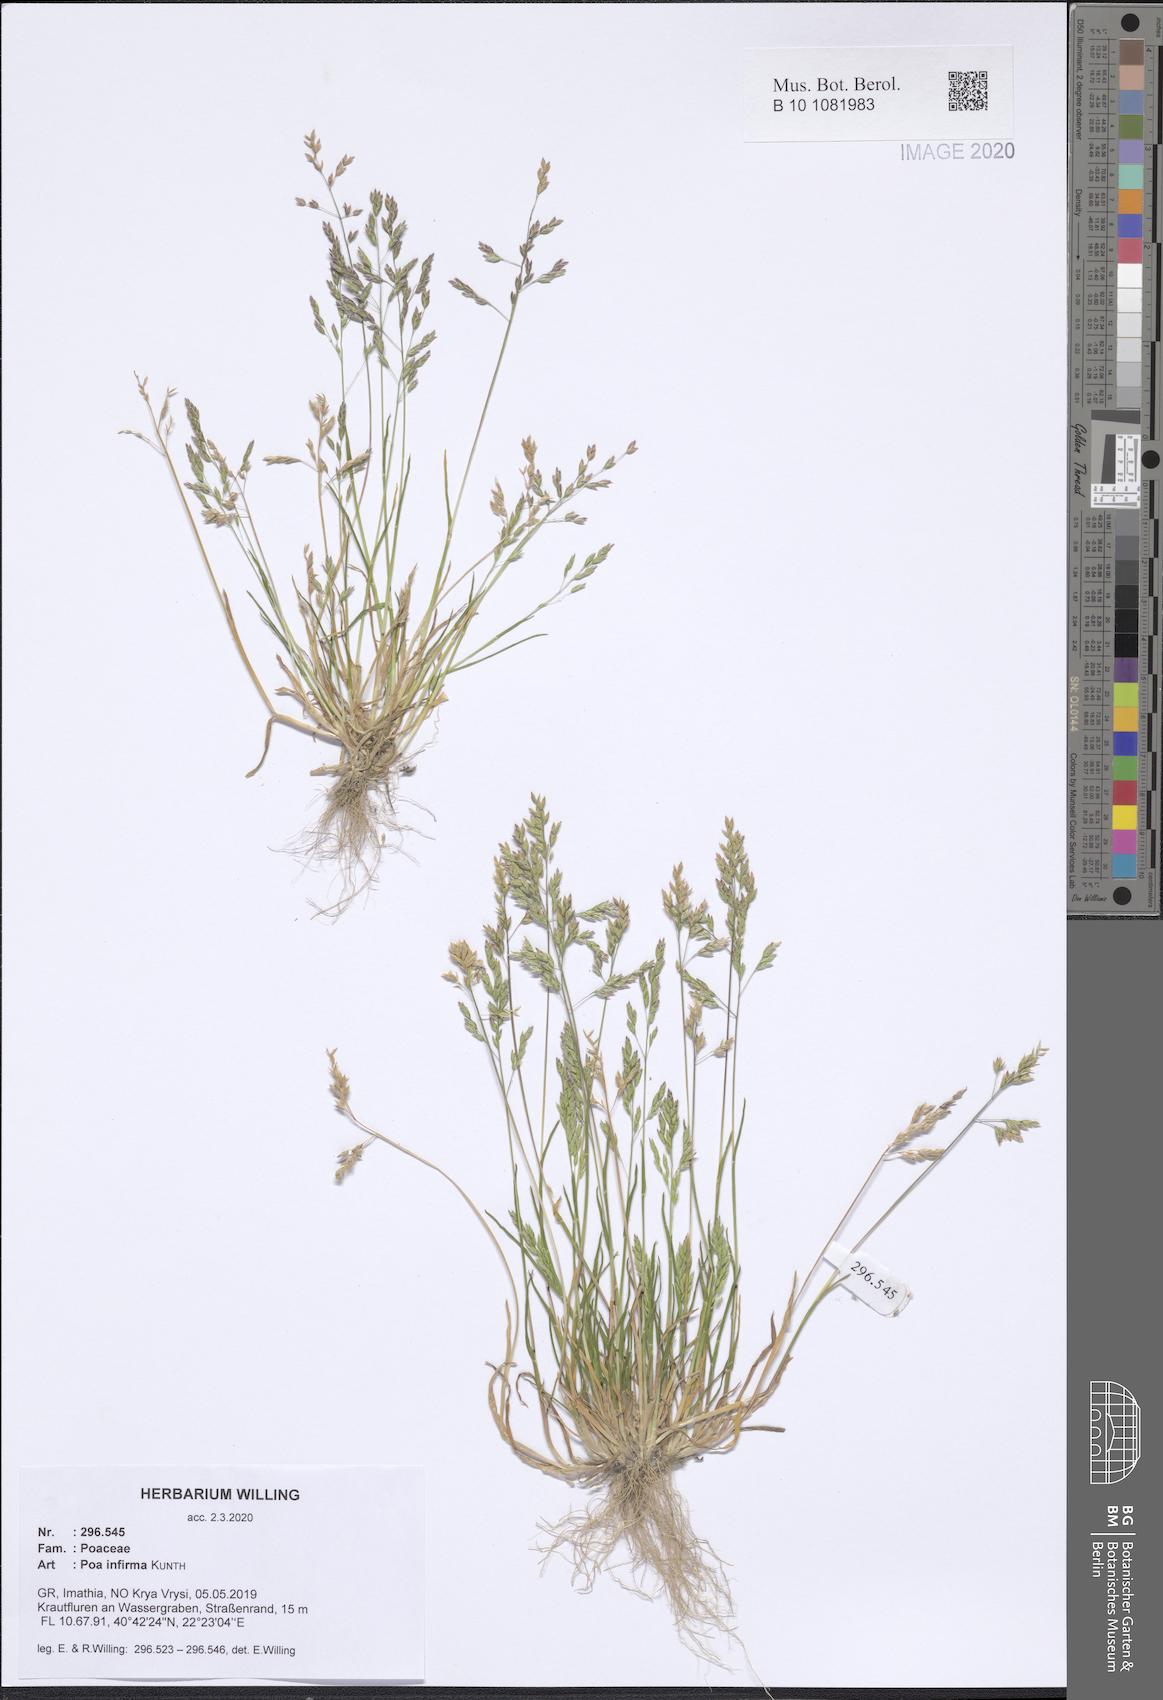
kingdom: Plantae
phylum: Tracheophyta
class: Liliopsida
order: Poales
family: Poaceae
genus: Poa
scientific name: Poa infirma
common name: Weak bluegrass
